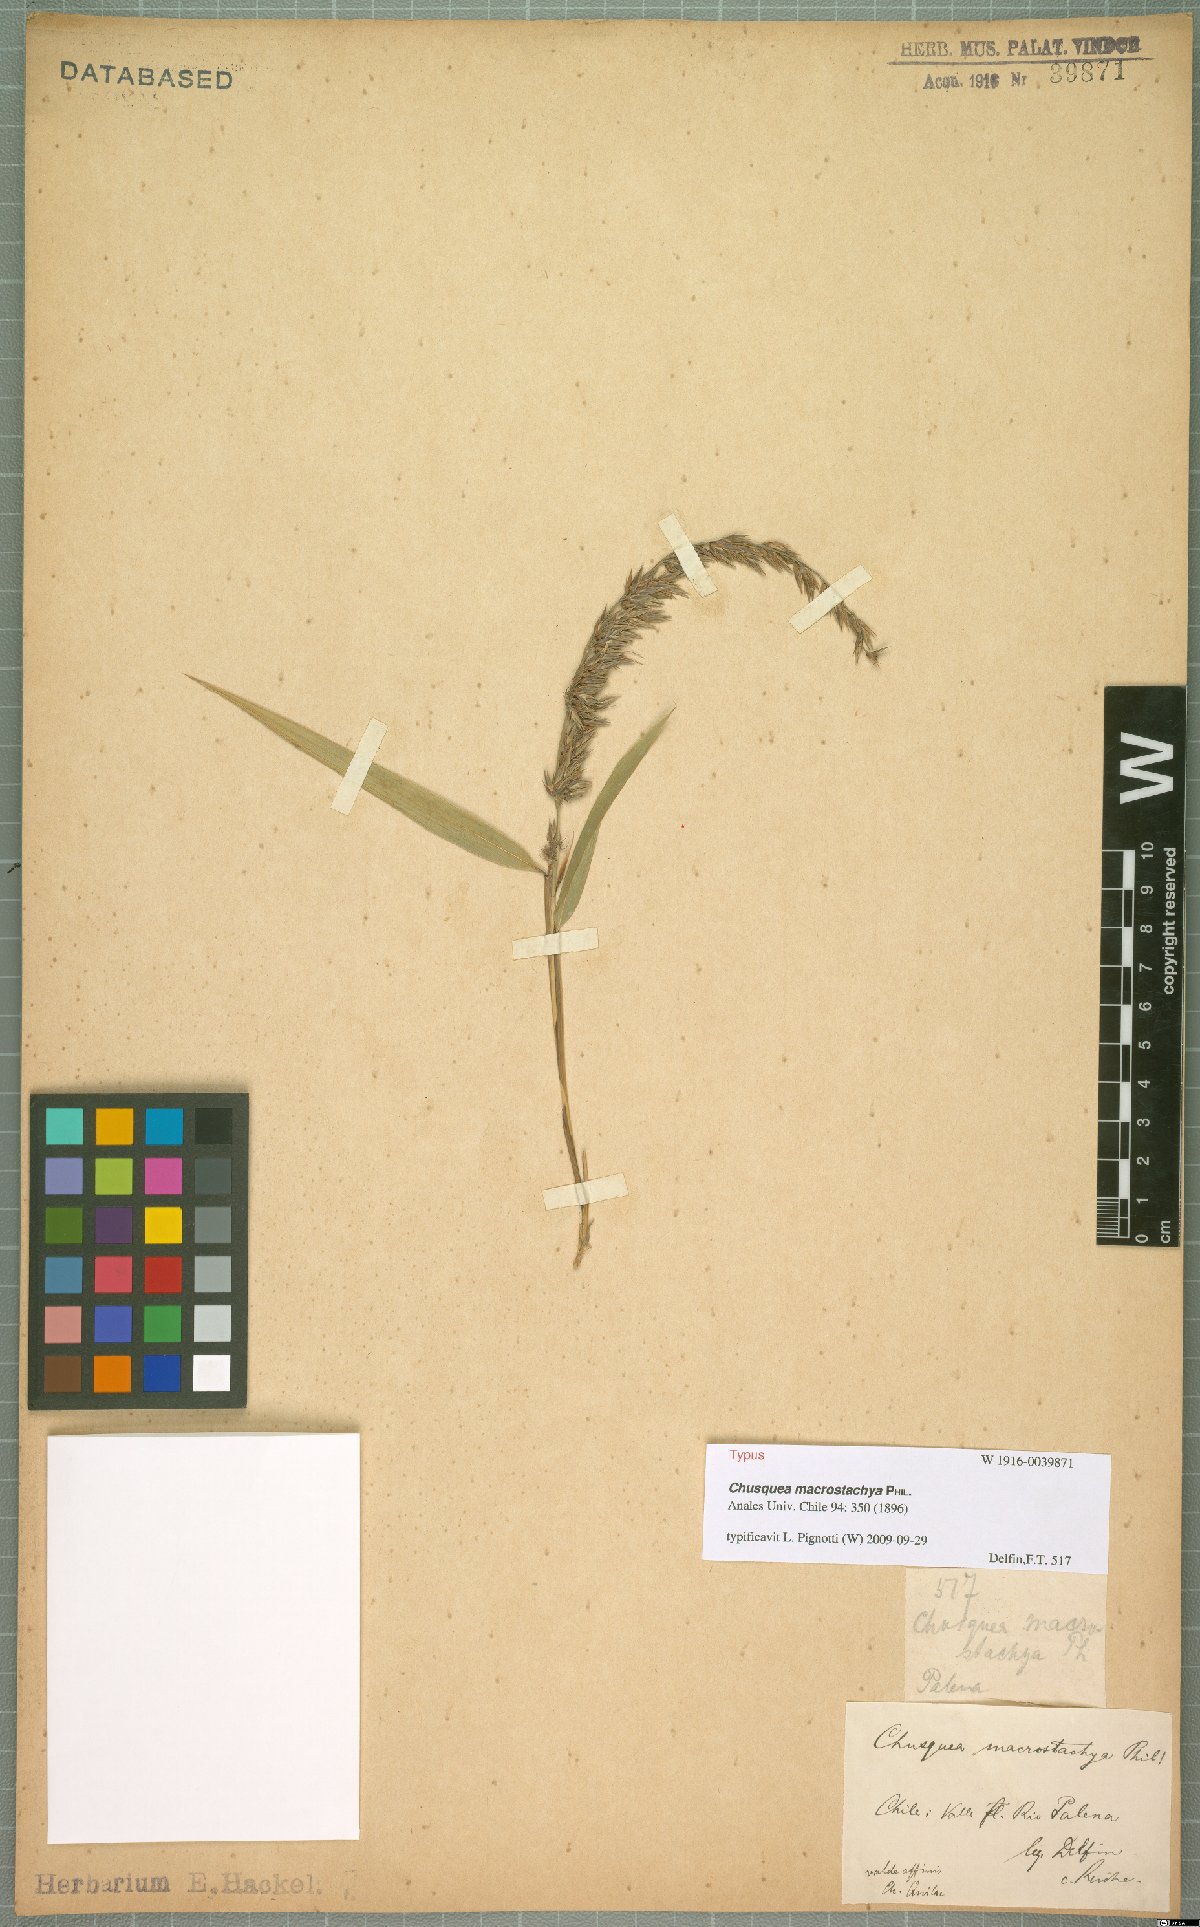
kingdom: Plantae
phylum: Tracheophyta
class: Liliopsida
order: Poales
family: Poaceae
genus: Chusquea
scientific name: Chusquea macrostachya
